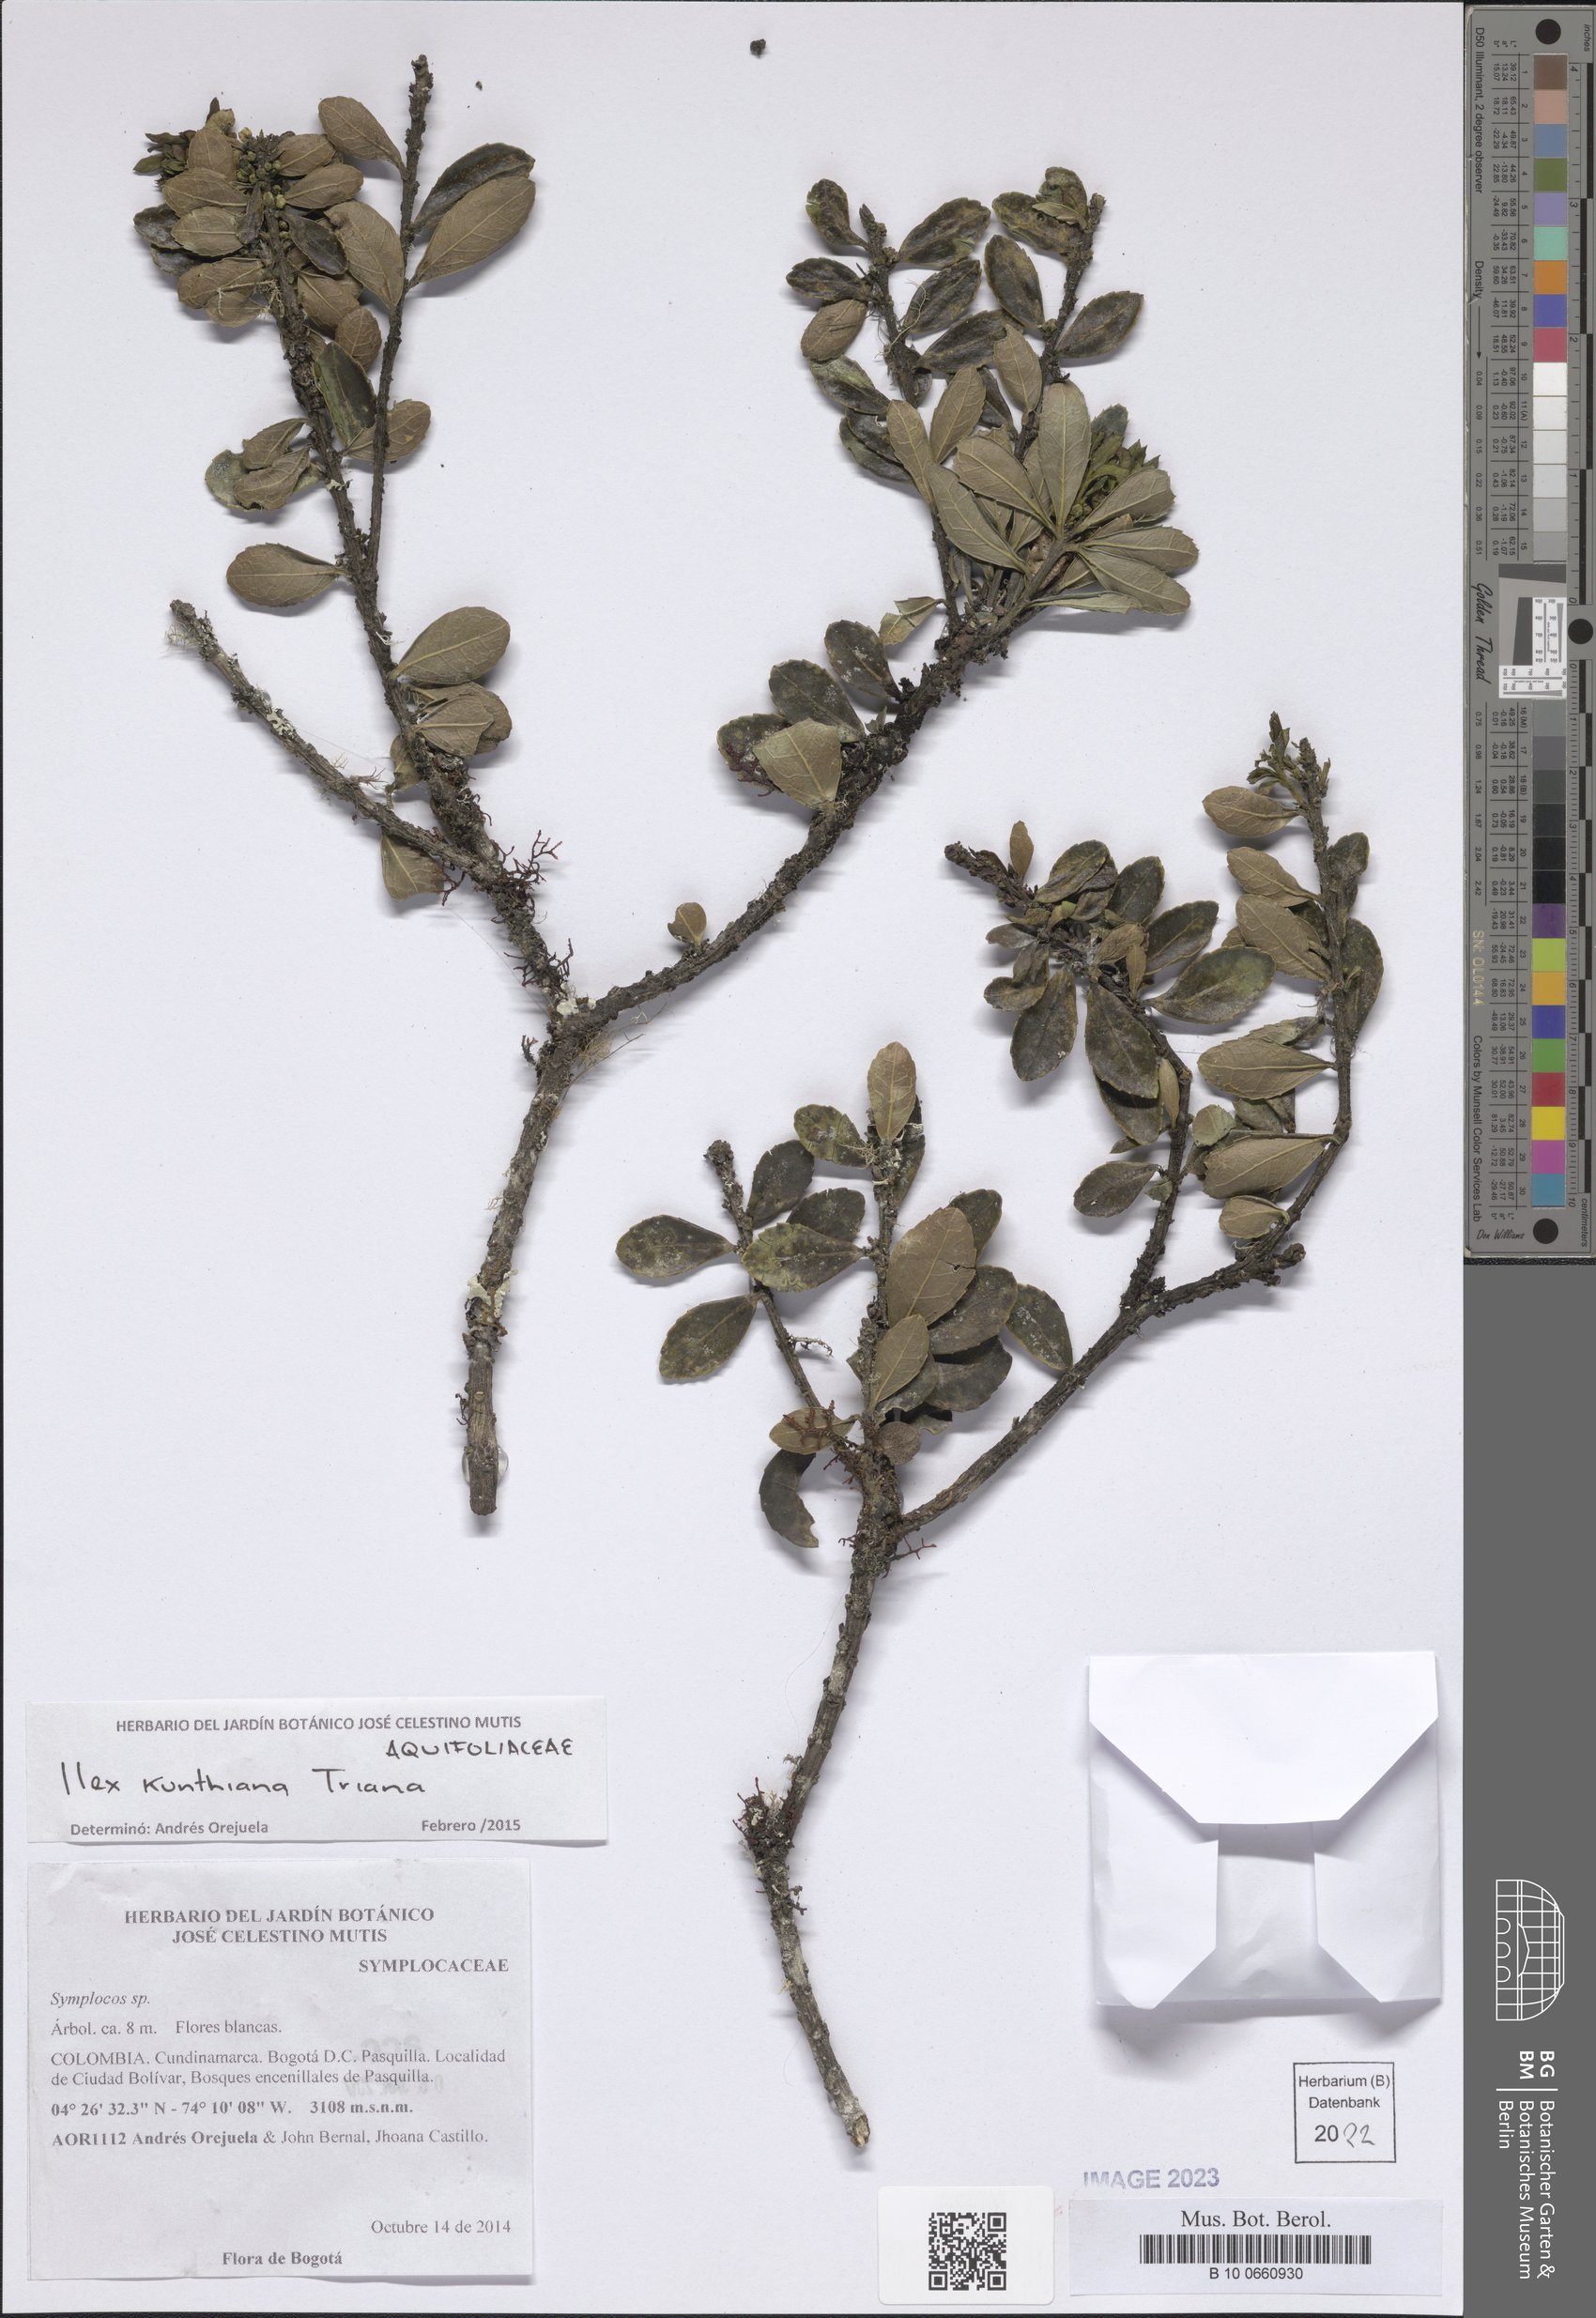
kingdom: Plantae
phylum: Tracheophyta
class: Magnoliopsida
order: Aquifoliales
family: Aquifoliaceae
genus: Ilex
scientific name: Ilex kunthiana
